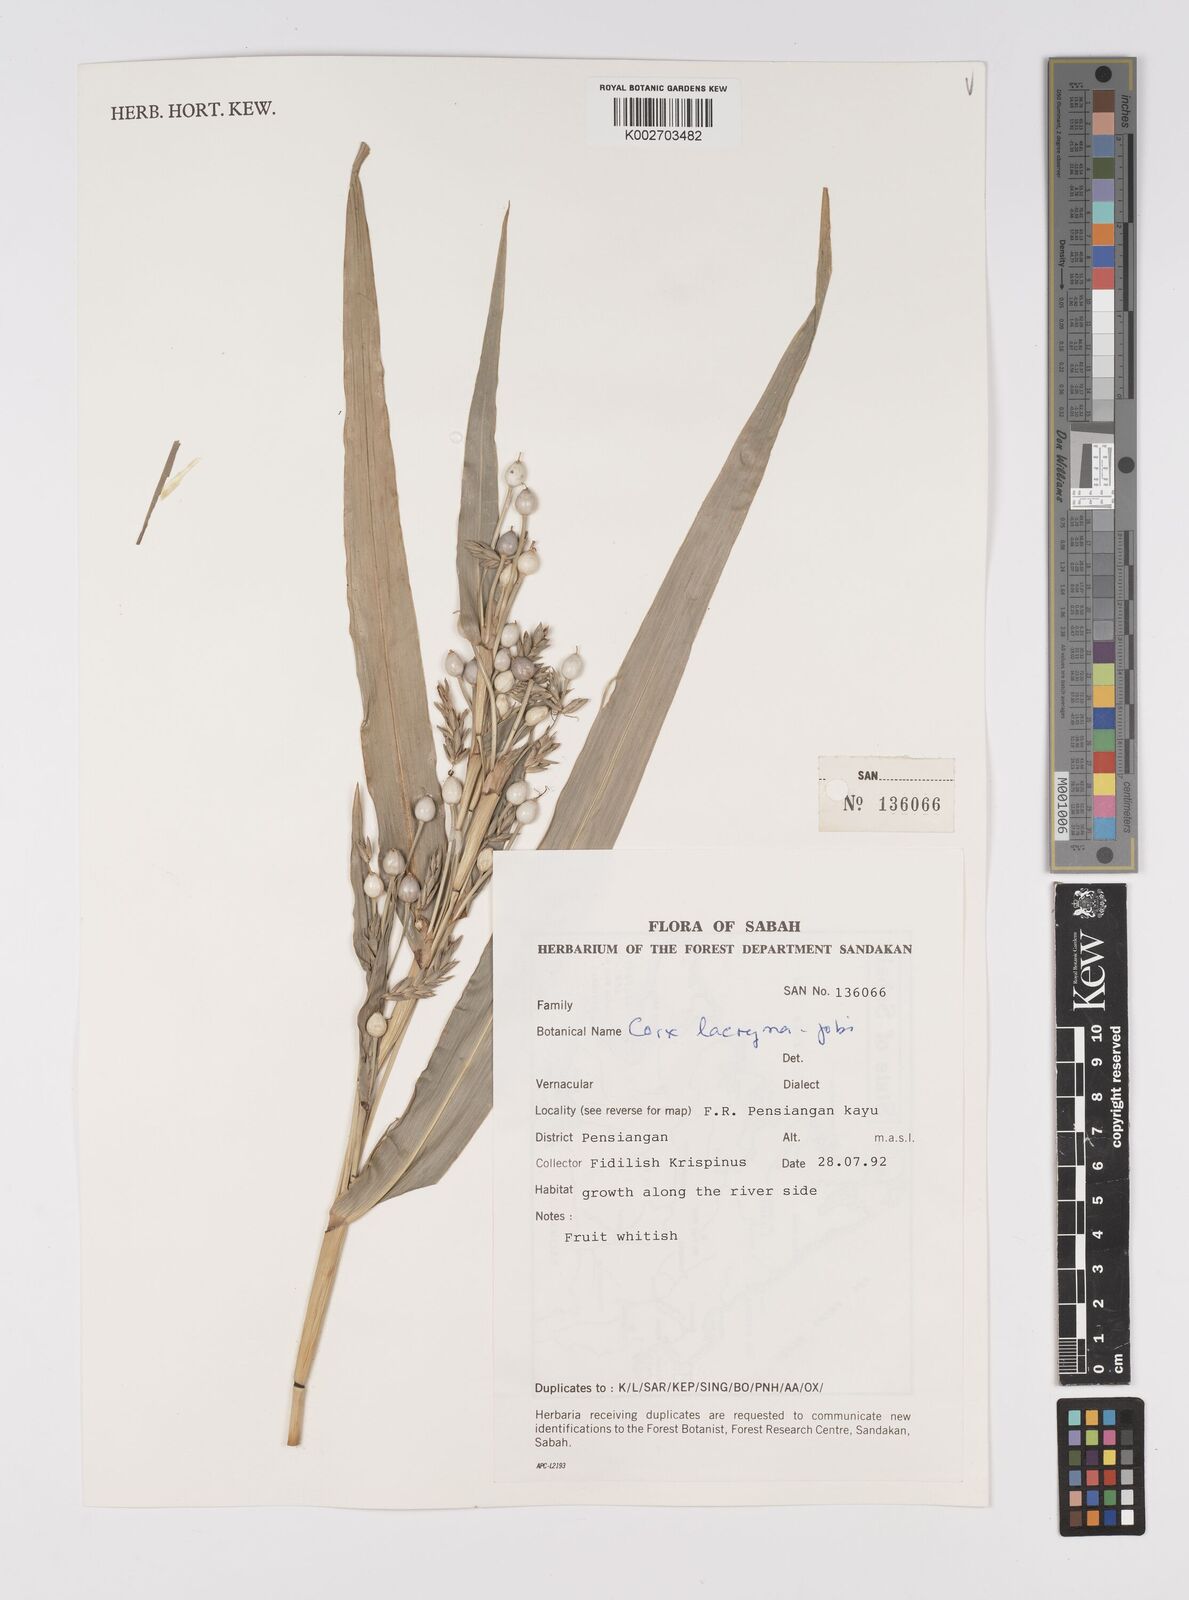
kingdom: Plantae
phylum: Tracheophyta
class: Liliopsida
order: Poales
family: Poaceae
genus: Coix
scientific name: Coix lacryma-jobi
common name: Job's tears
